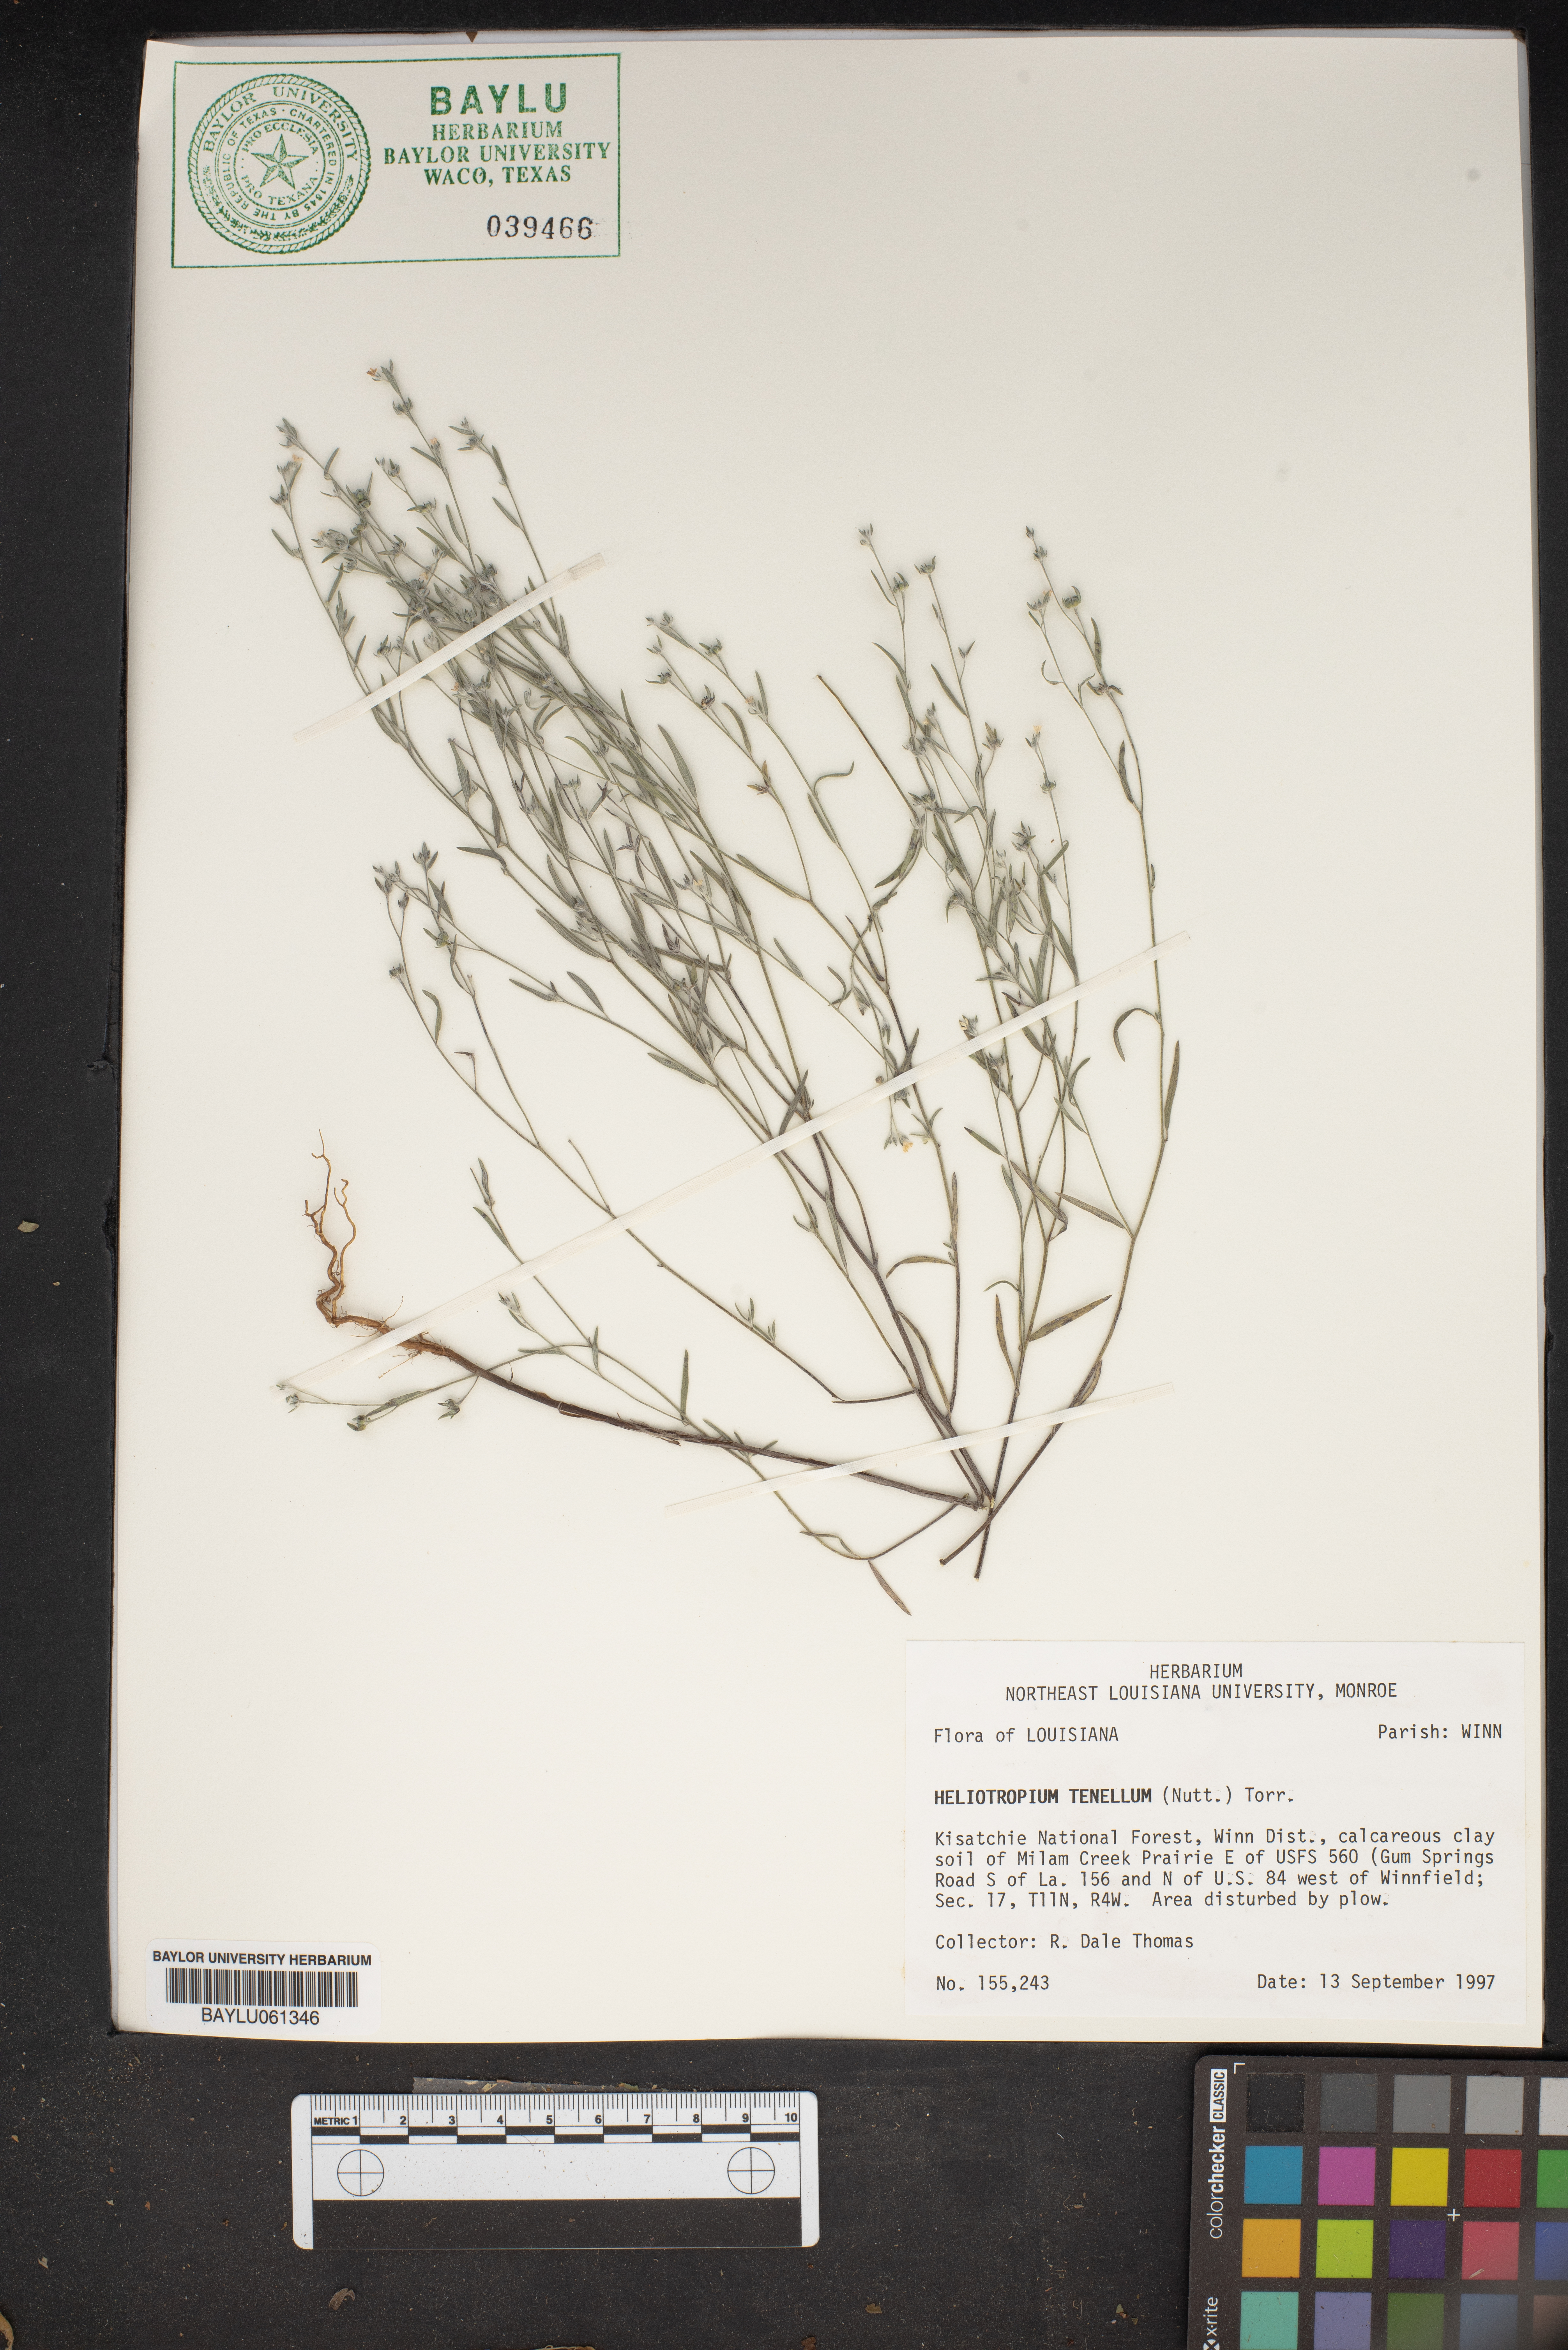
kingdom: Plantae
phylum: Tracheophyta
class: Magnoliopsida
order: Boraginales
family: Heliotropiaceae
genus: Euploca
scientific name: Euploca tenella
